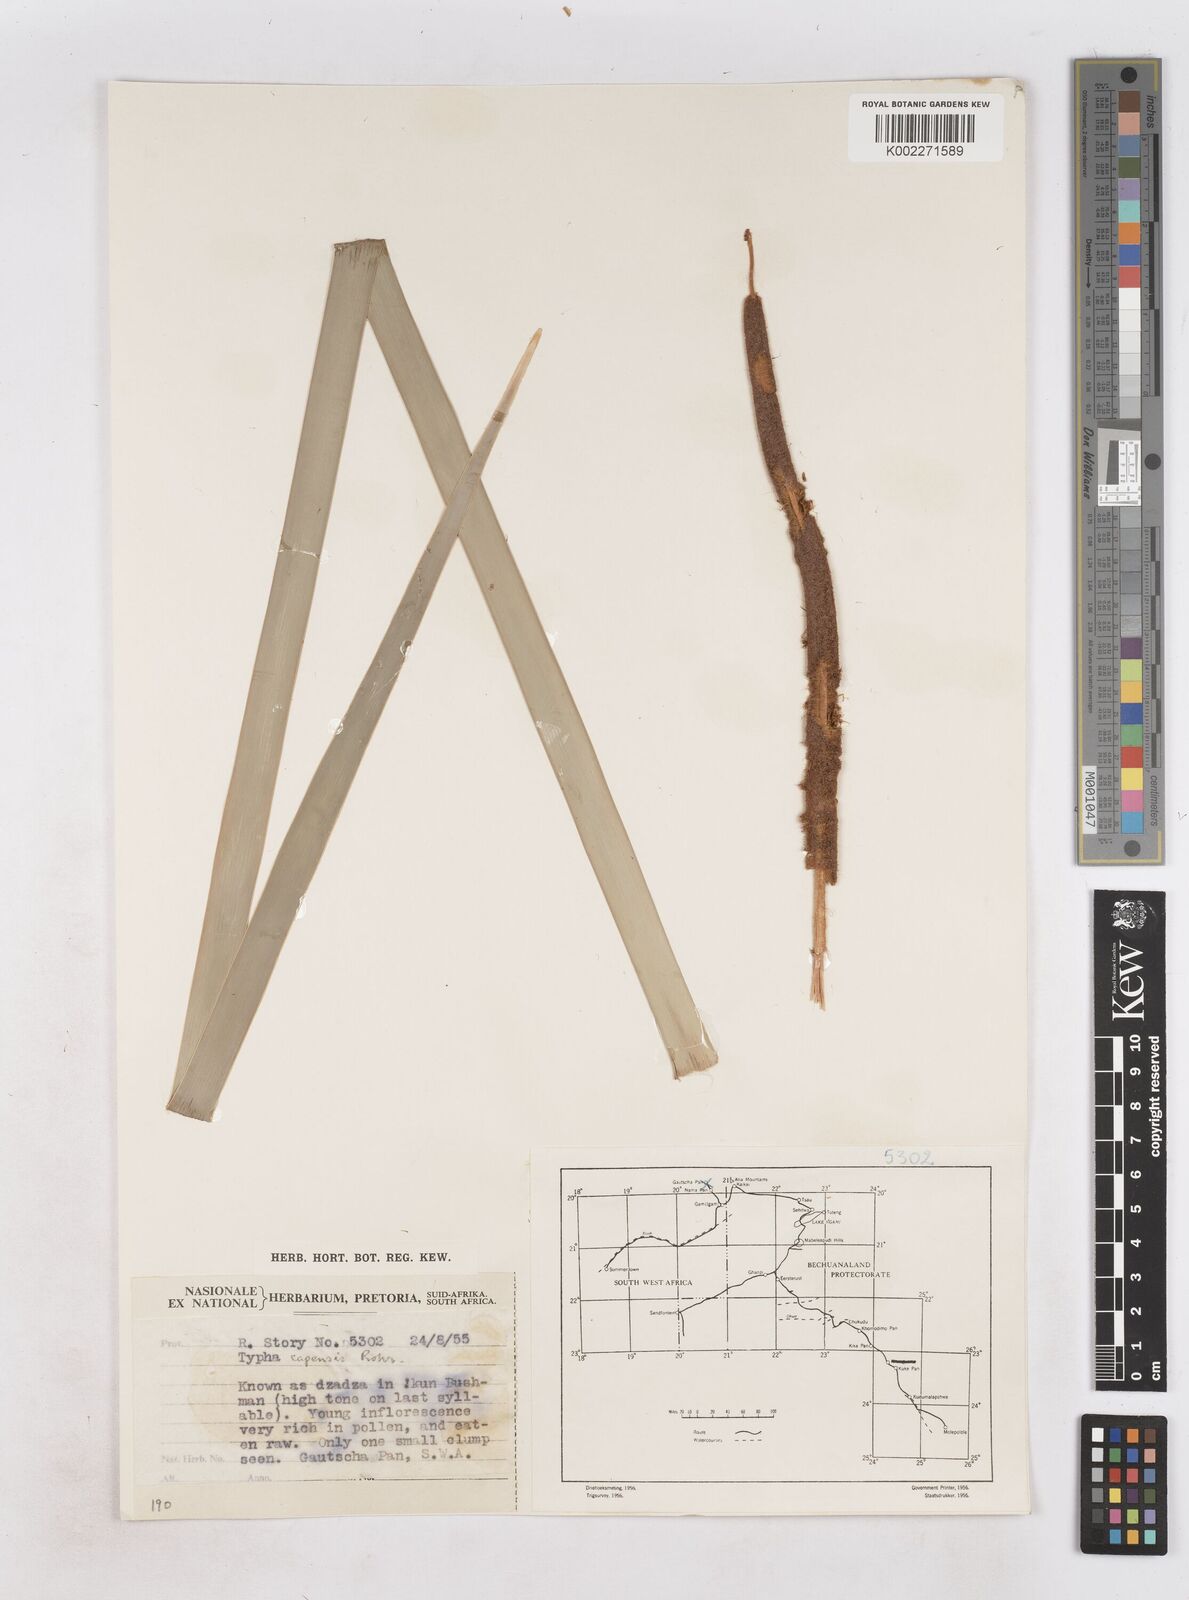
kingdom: Plantae
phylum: Tracheophyta
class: Liliopsida
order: Poales
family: Typhaceae
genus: Typha
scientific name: Typha capensis
